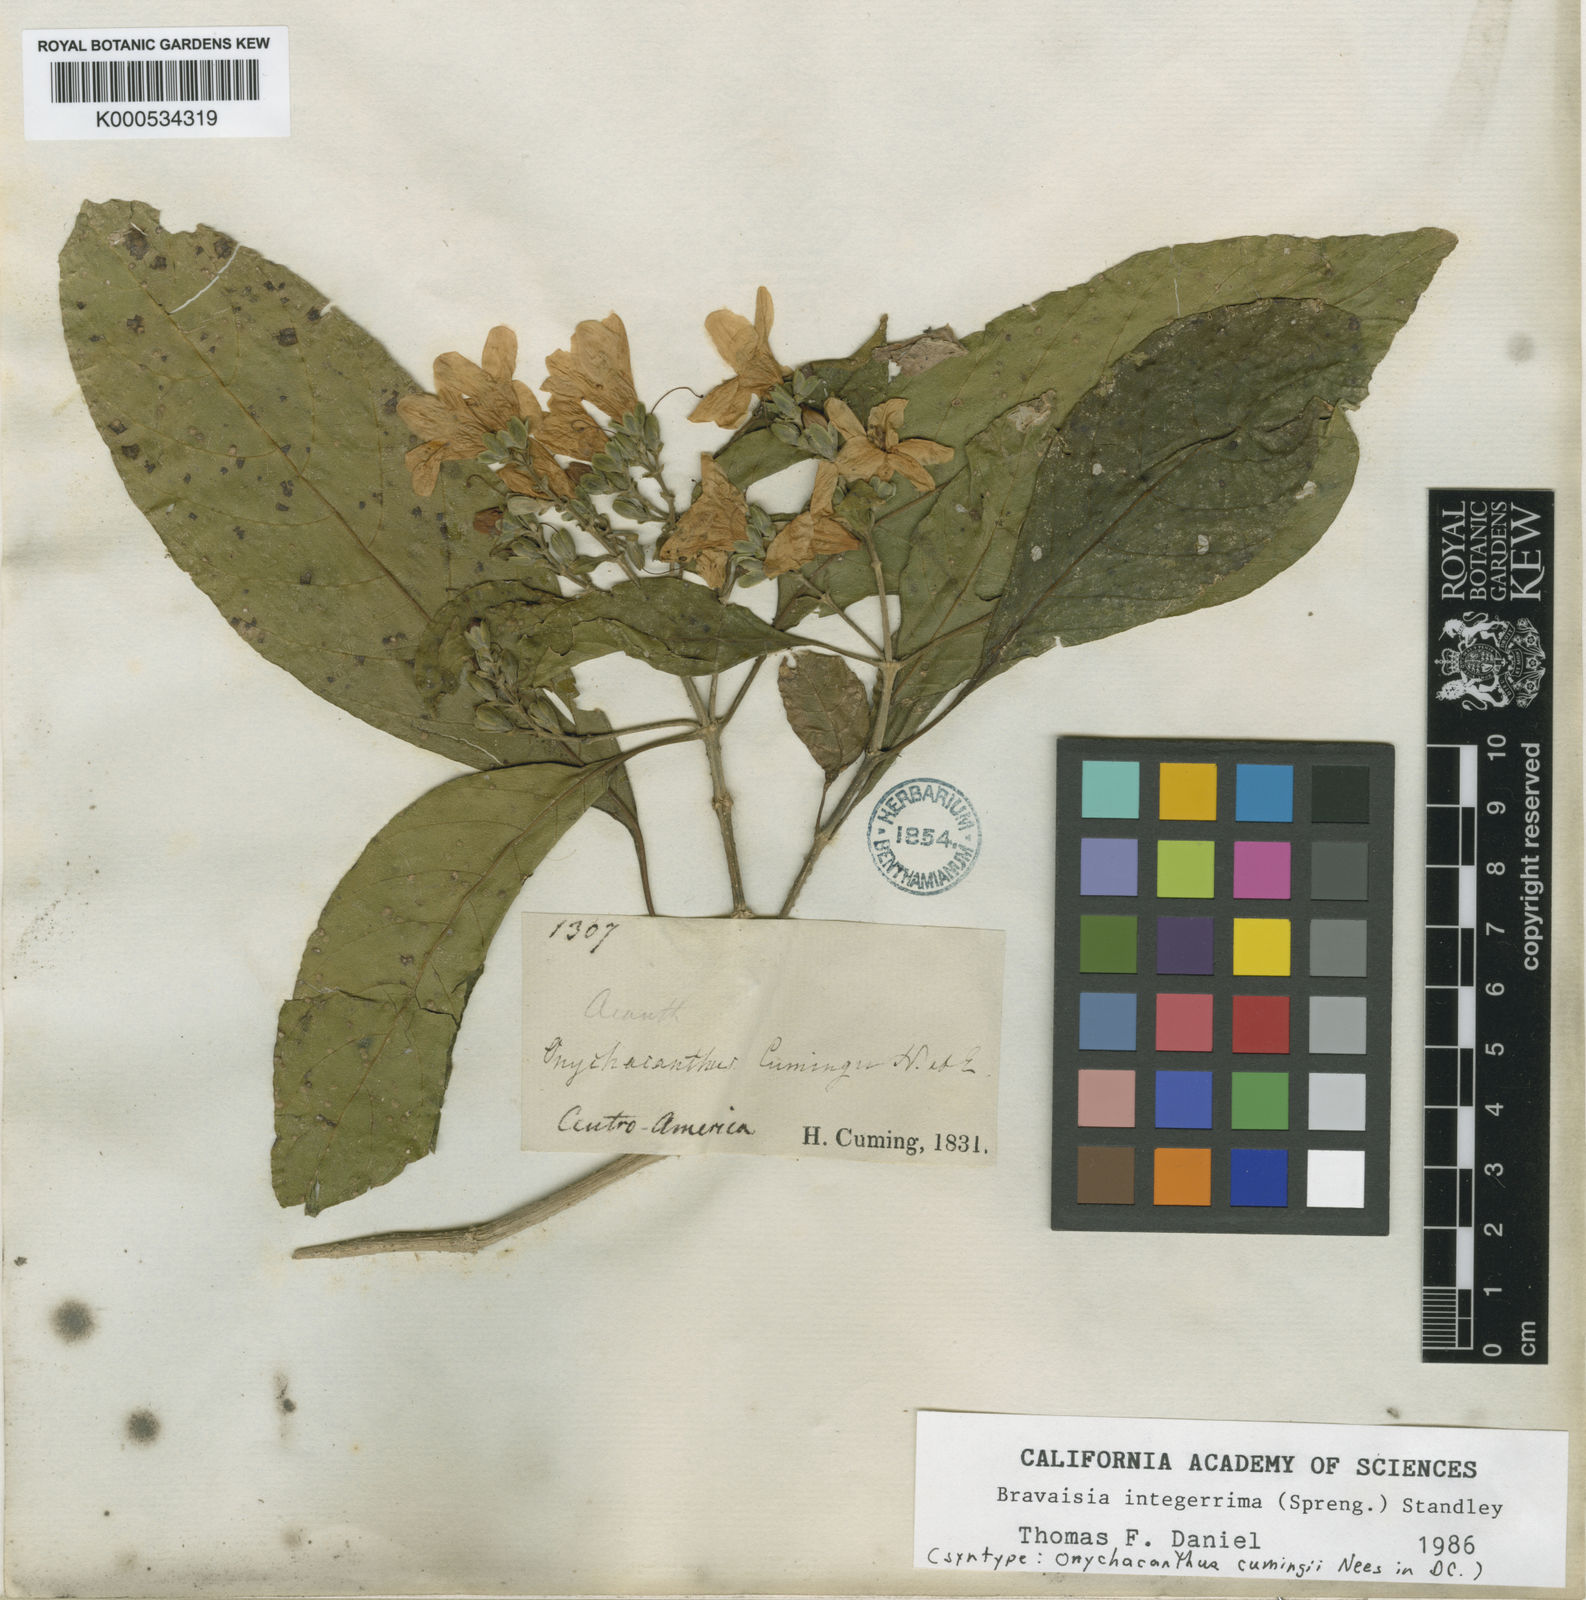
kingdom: Plantae
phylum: Tracheophyta
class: Magnoliopsida
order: Lamiales
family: Acanthaceae
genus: Bravaisia
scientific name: Bravaisia integerrima
